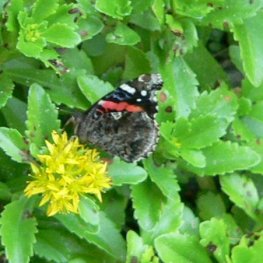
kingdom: Animalia
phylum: Arthropoda
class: Insecta
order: Lepidoptera
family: Nymphalidae
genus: Vanessa
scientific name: Vanessa atalanta
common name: Red Admiral
